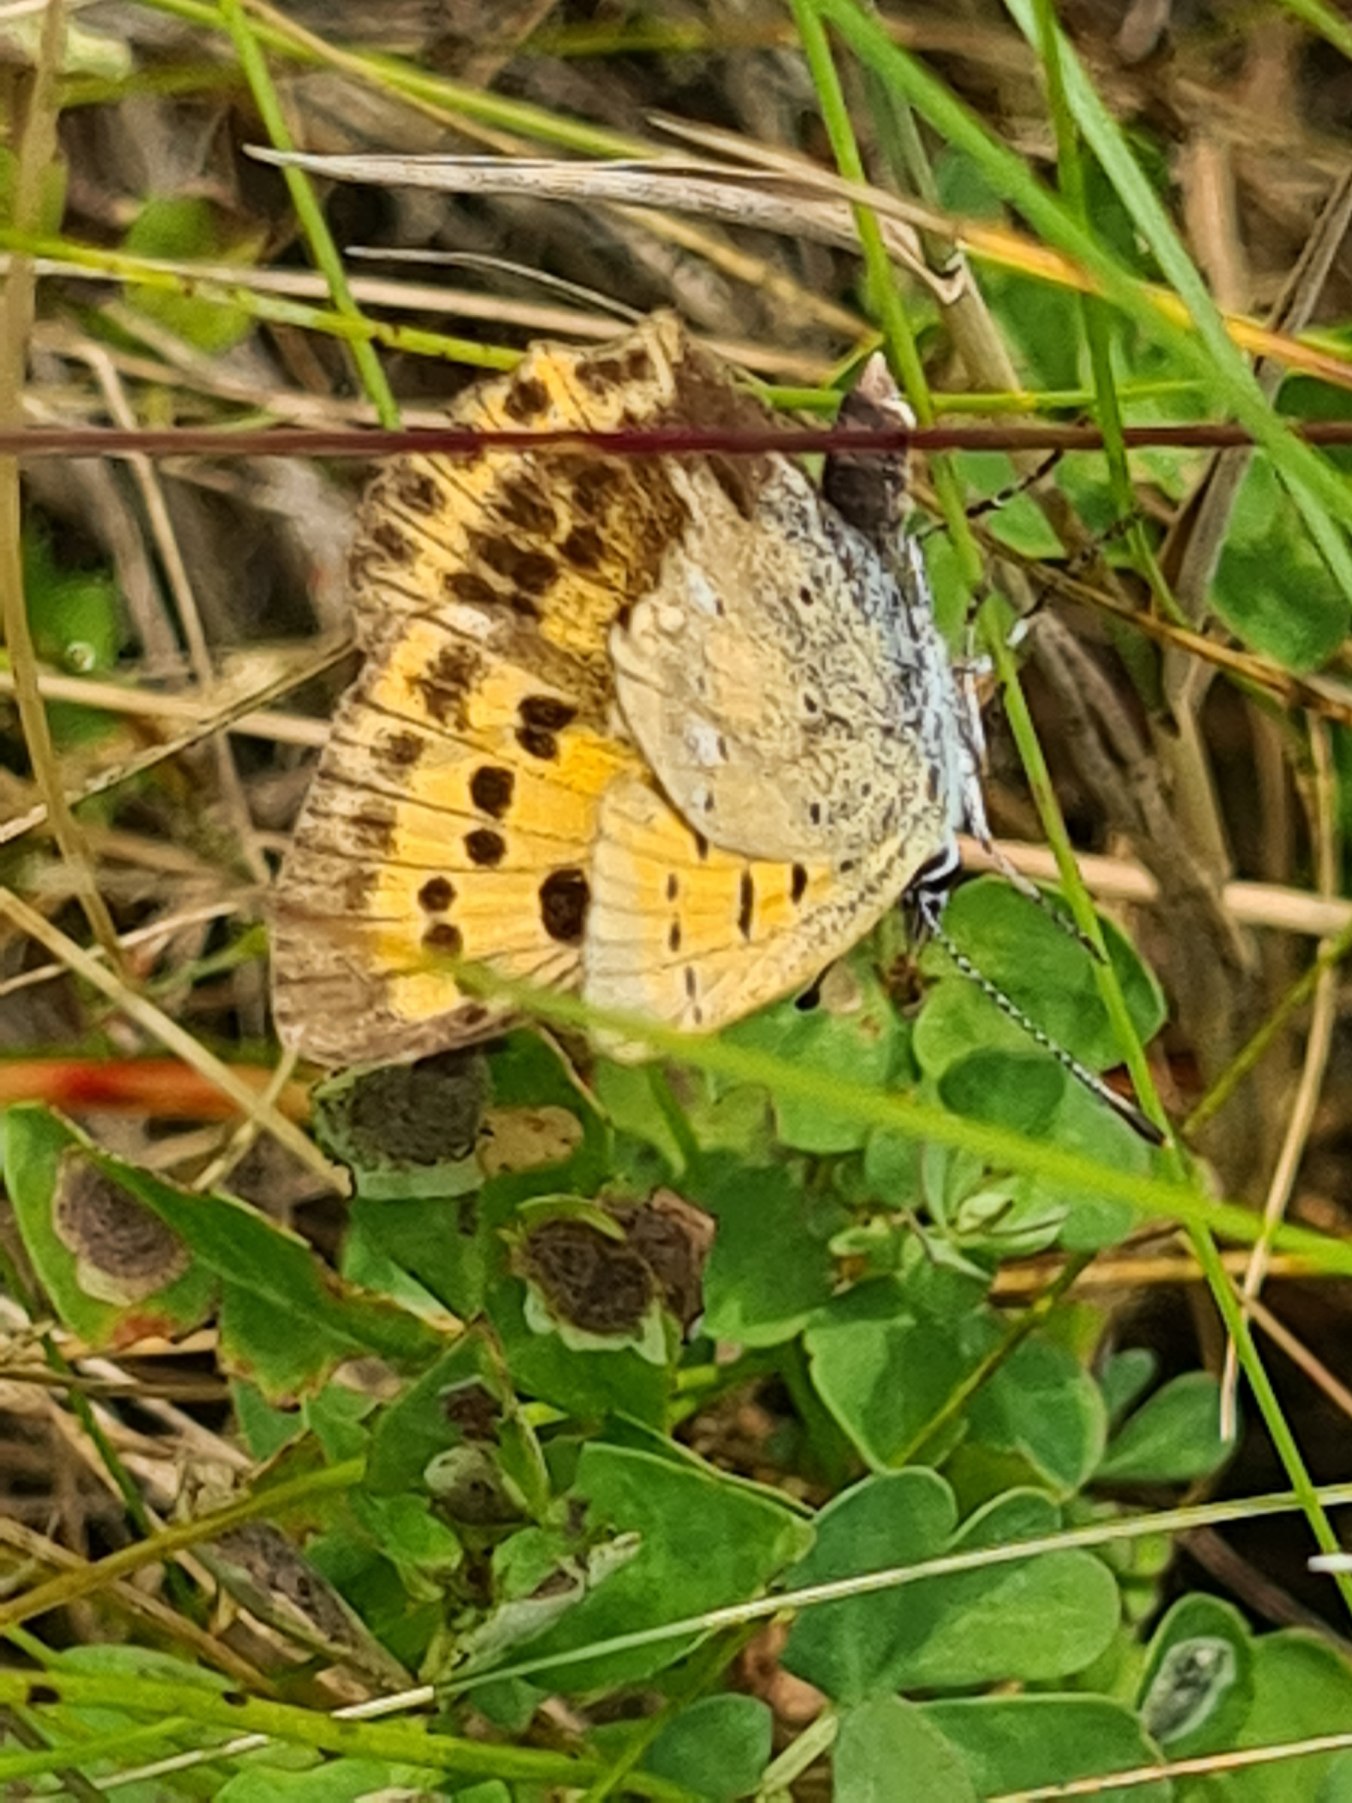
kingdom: Animalia
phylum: Arthropoda
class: Insecta
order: Lepidoptera
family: Lycaenidae
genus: Lycaena
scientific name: Lycaena virgaureae
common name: Dukatsommerfugl
